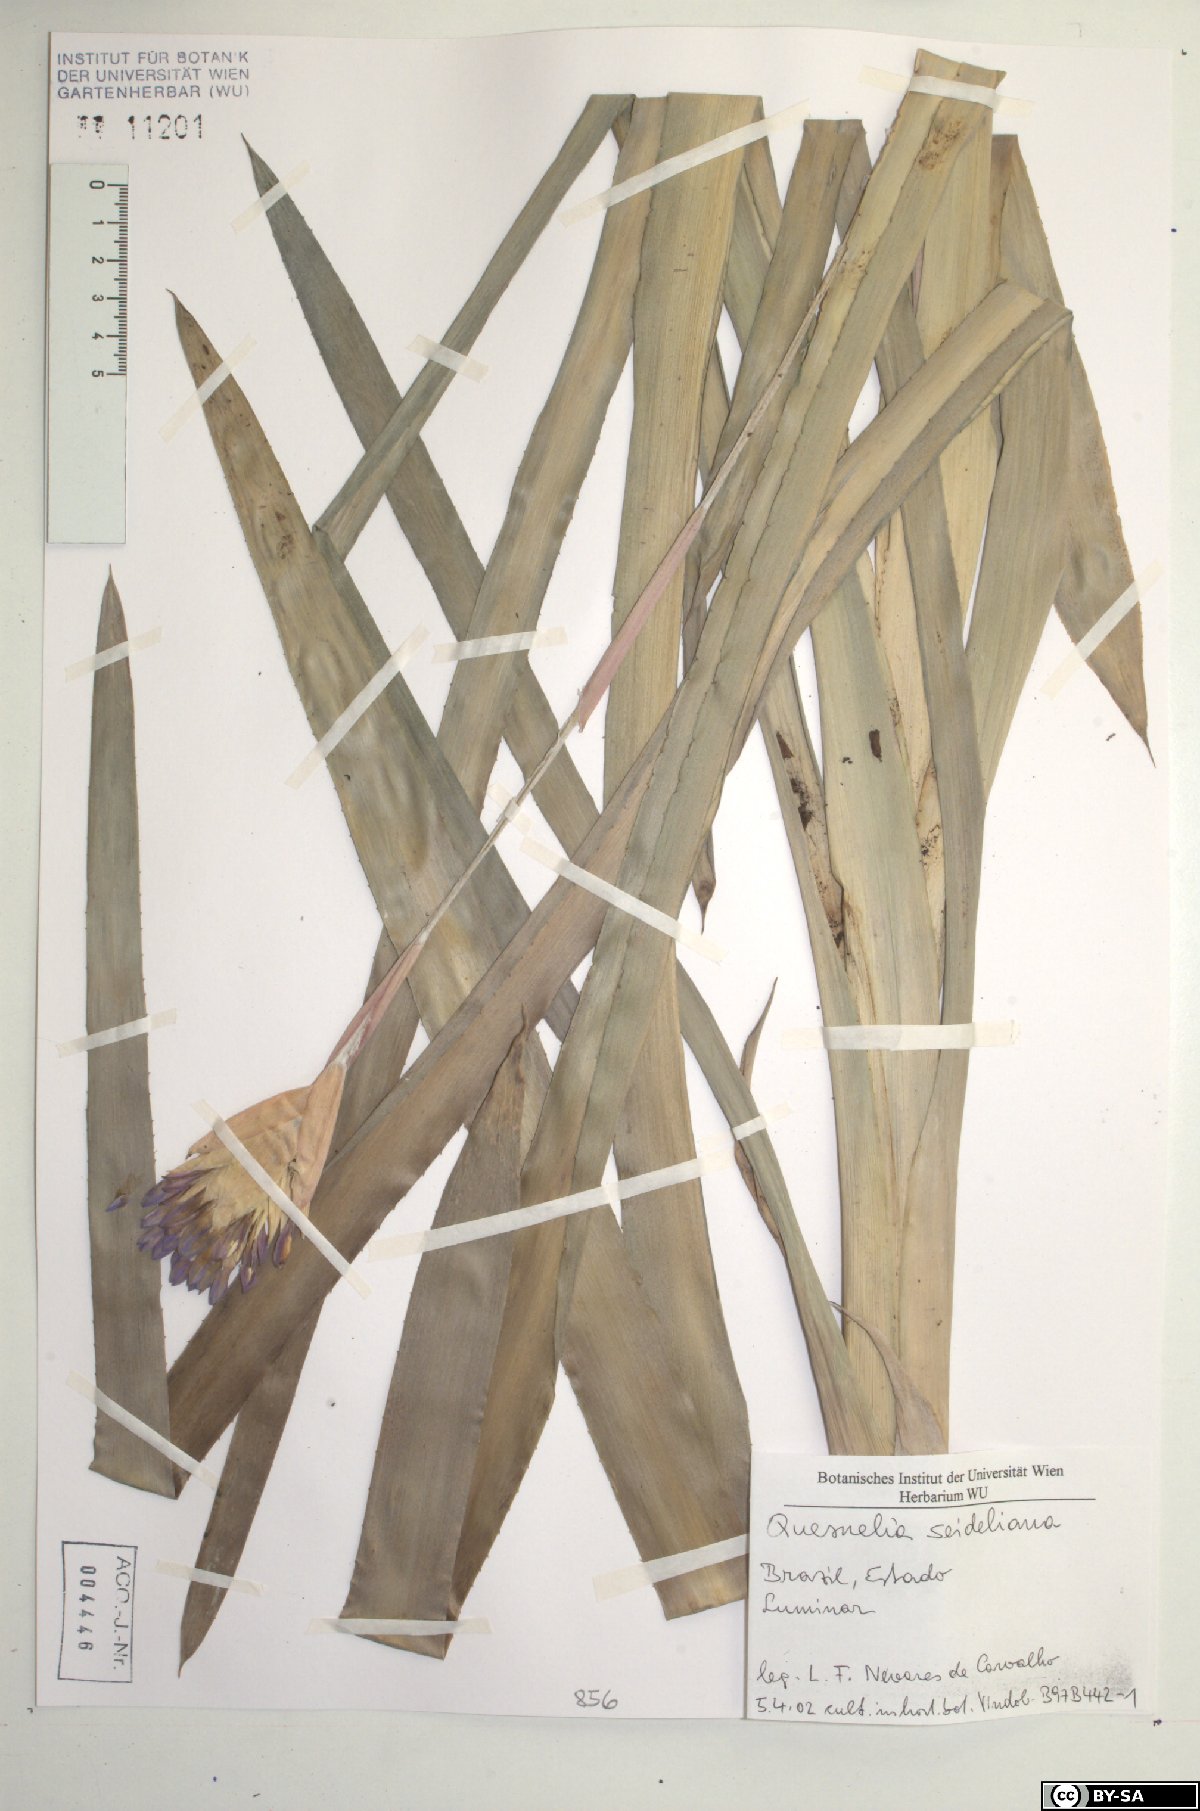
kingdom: Plantae
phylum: Tracheophyta
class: Liliopsida
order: Poales
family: Bromeliaceae
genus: Quesnelia
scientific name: Quesnelia seideliana
